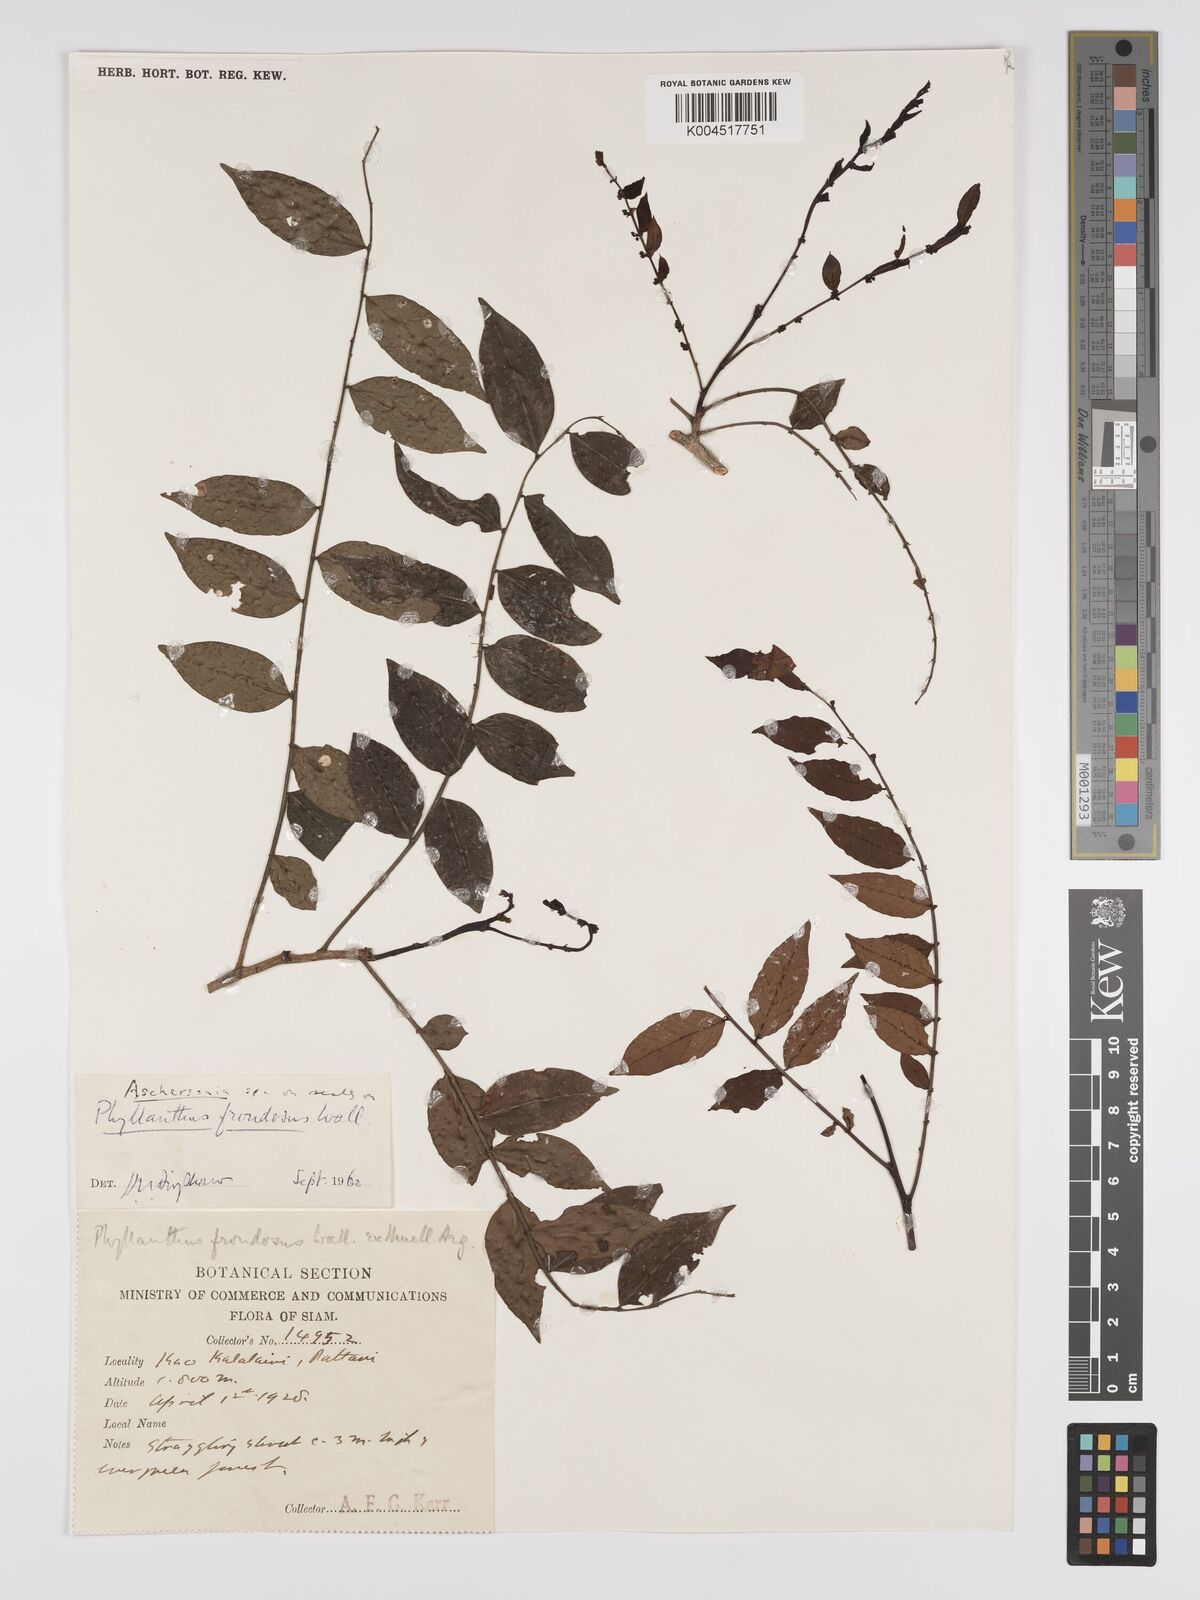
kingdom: Plantae
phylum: Tracheophyta
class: Magnoliopsida
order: Malpighiales
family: Phyllanthaceae
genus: Phyllanthus
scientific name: Phyllanthus
